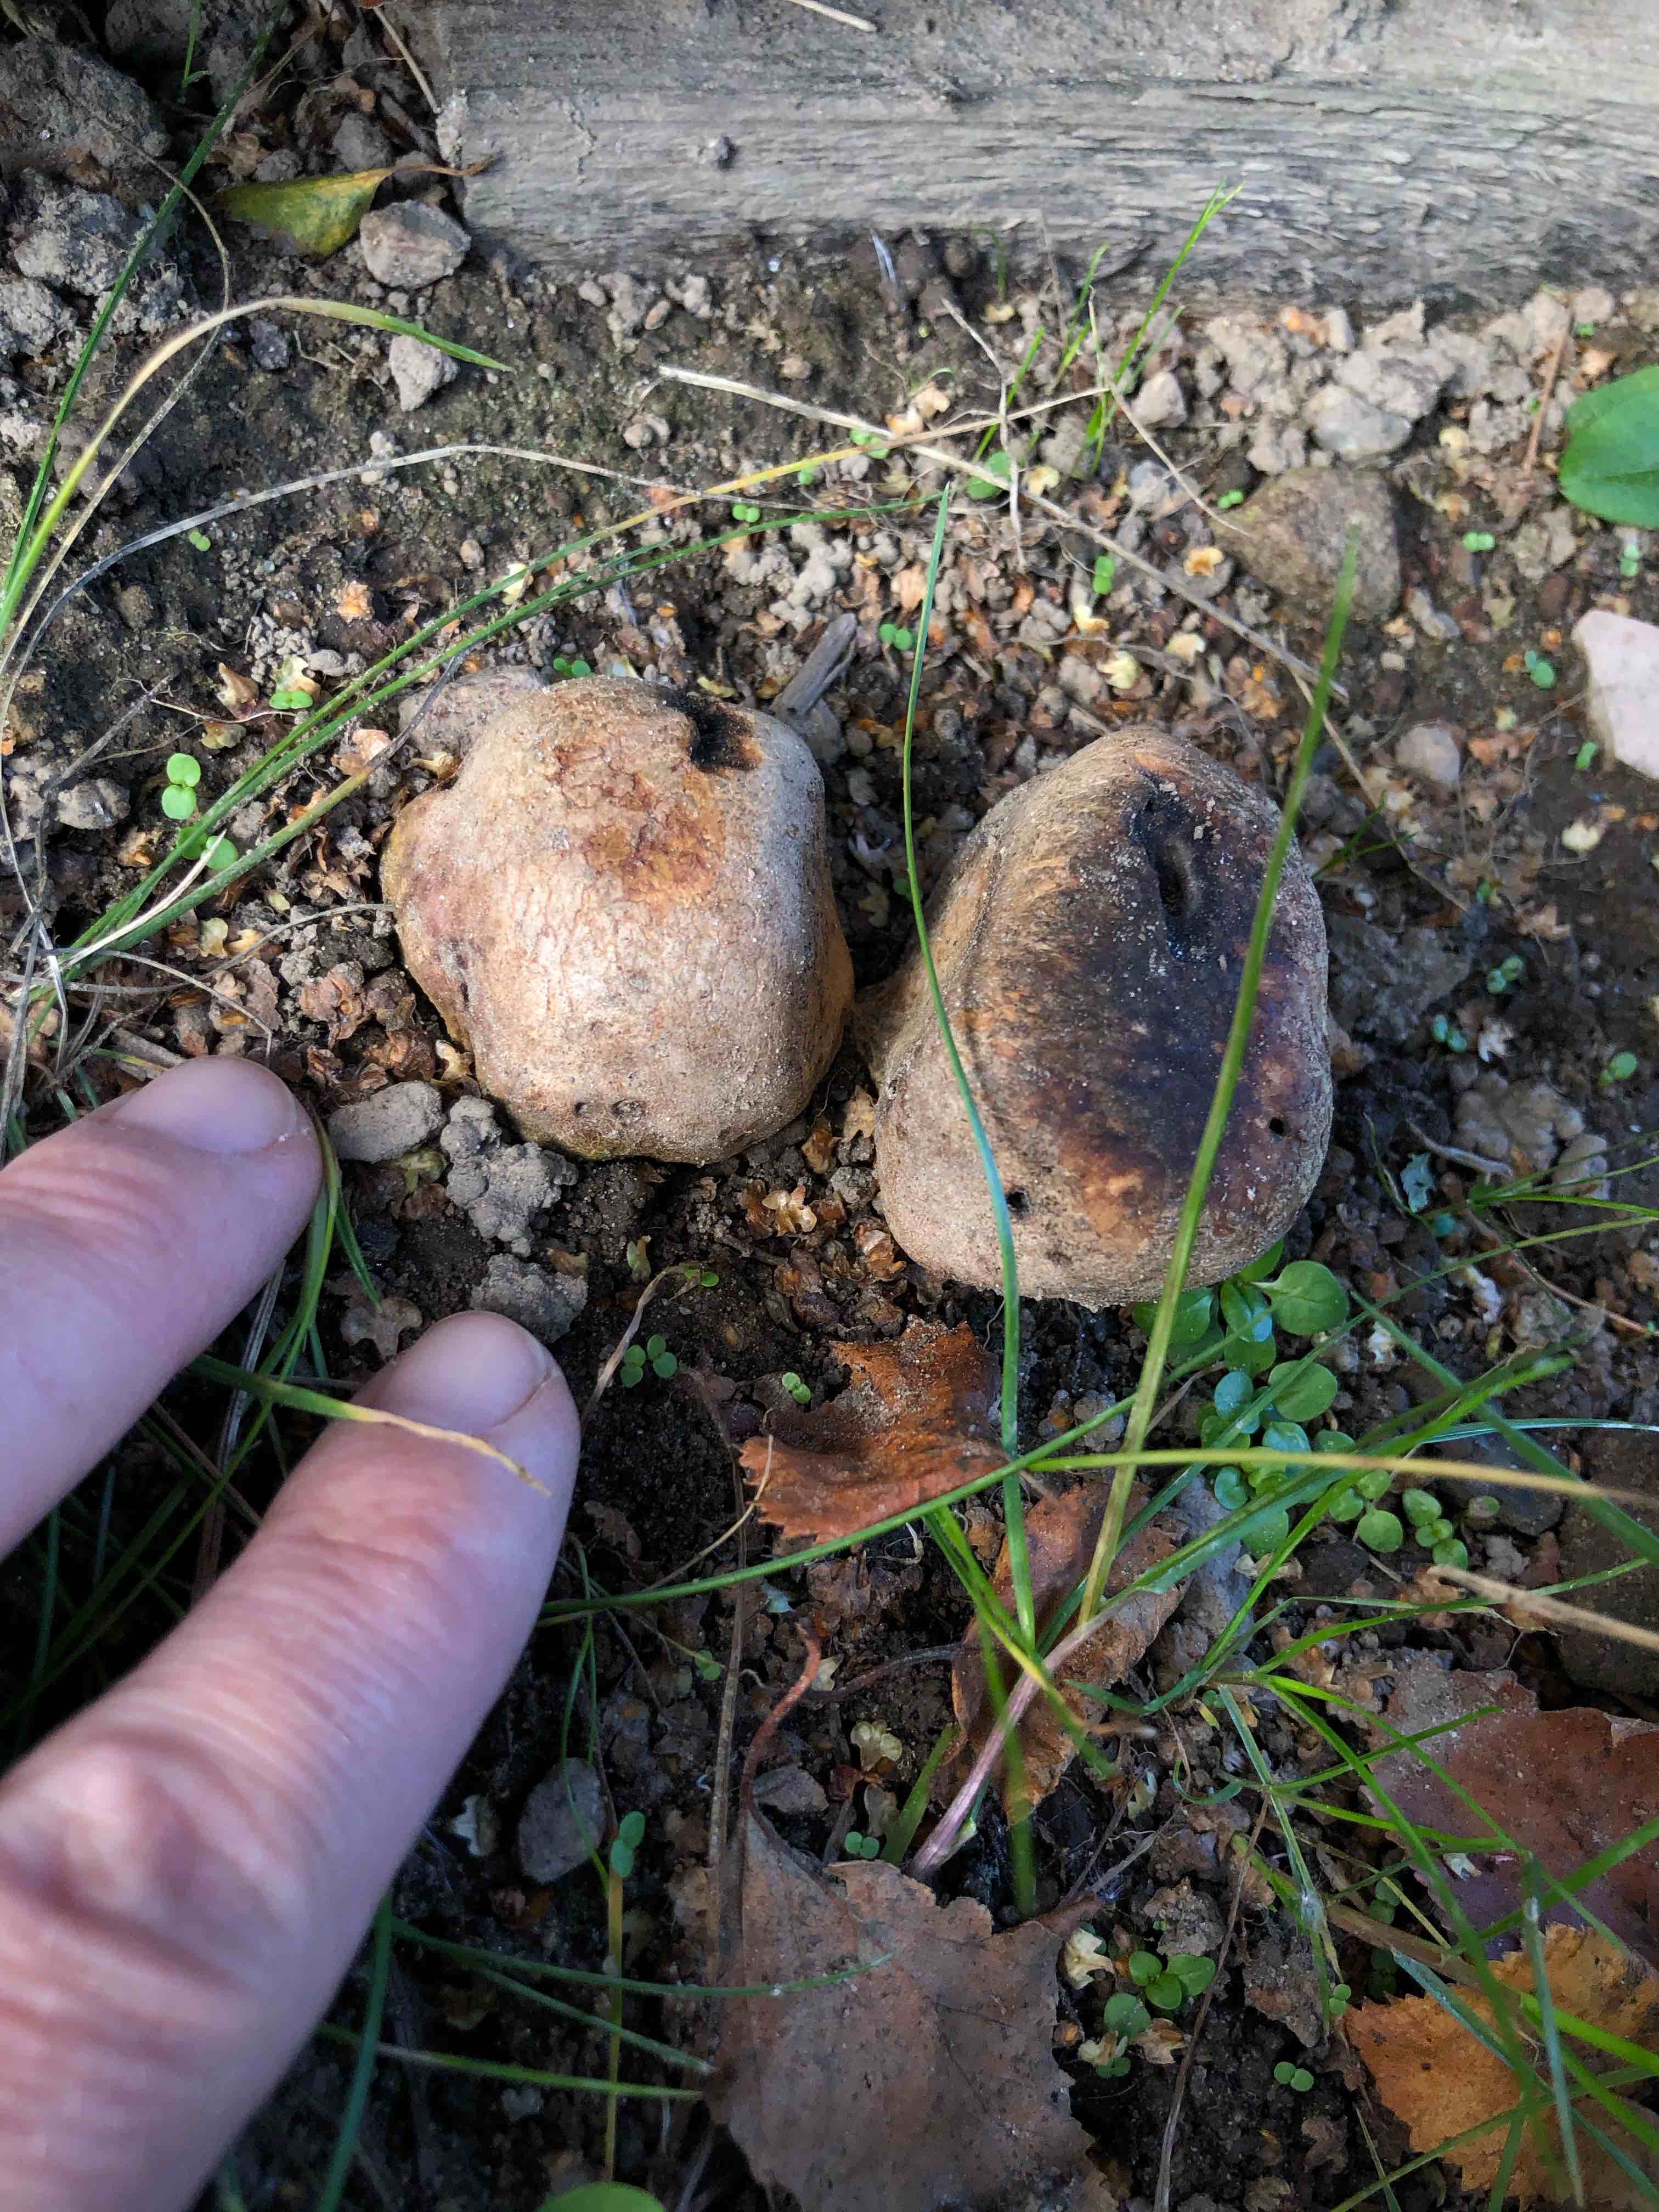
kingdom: Fungi
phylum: Basidiomycota
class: Agaricomycetes
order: Boletales
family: Sclerodermataceae
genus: Scleroderma
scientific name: Scleroderma
